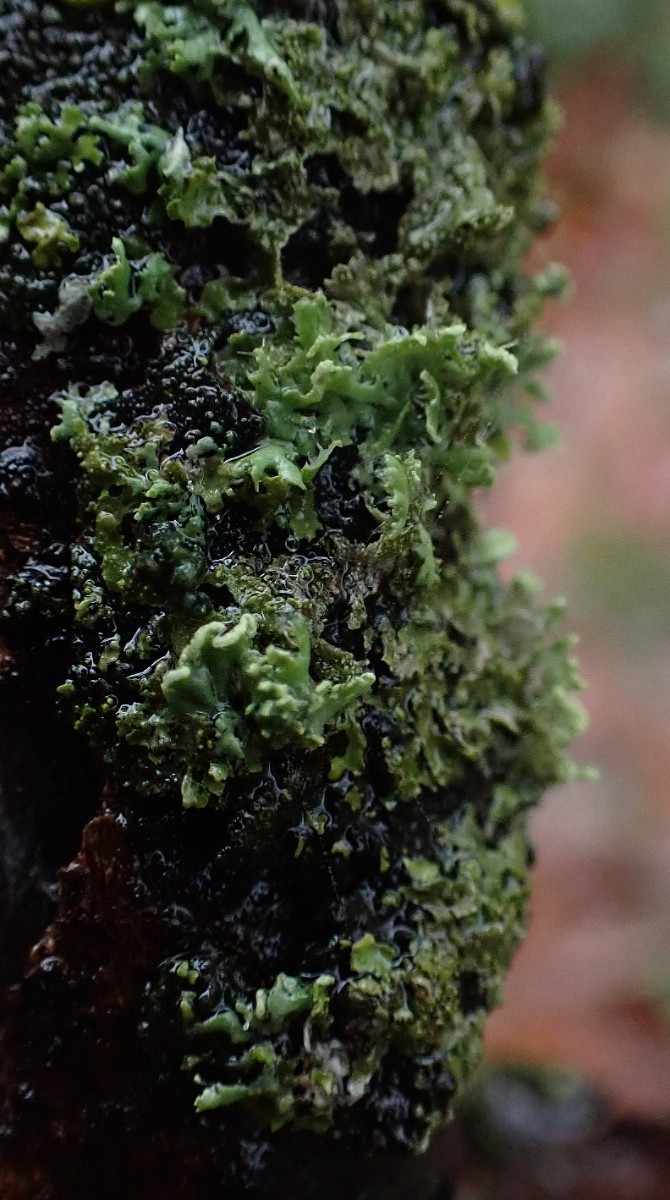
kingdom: Fungi
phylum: Ascomycota
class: Lecanoromycetes
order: Caliciales
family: Physciaceae
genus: Physcia
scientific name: Physcia tenella
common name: spæd rosetlav
